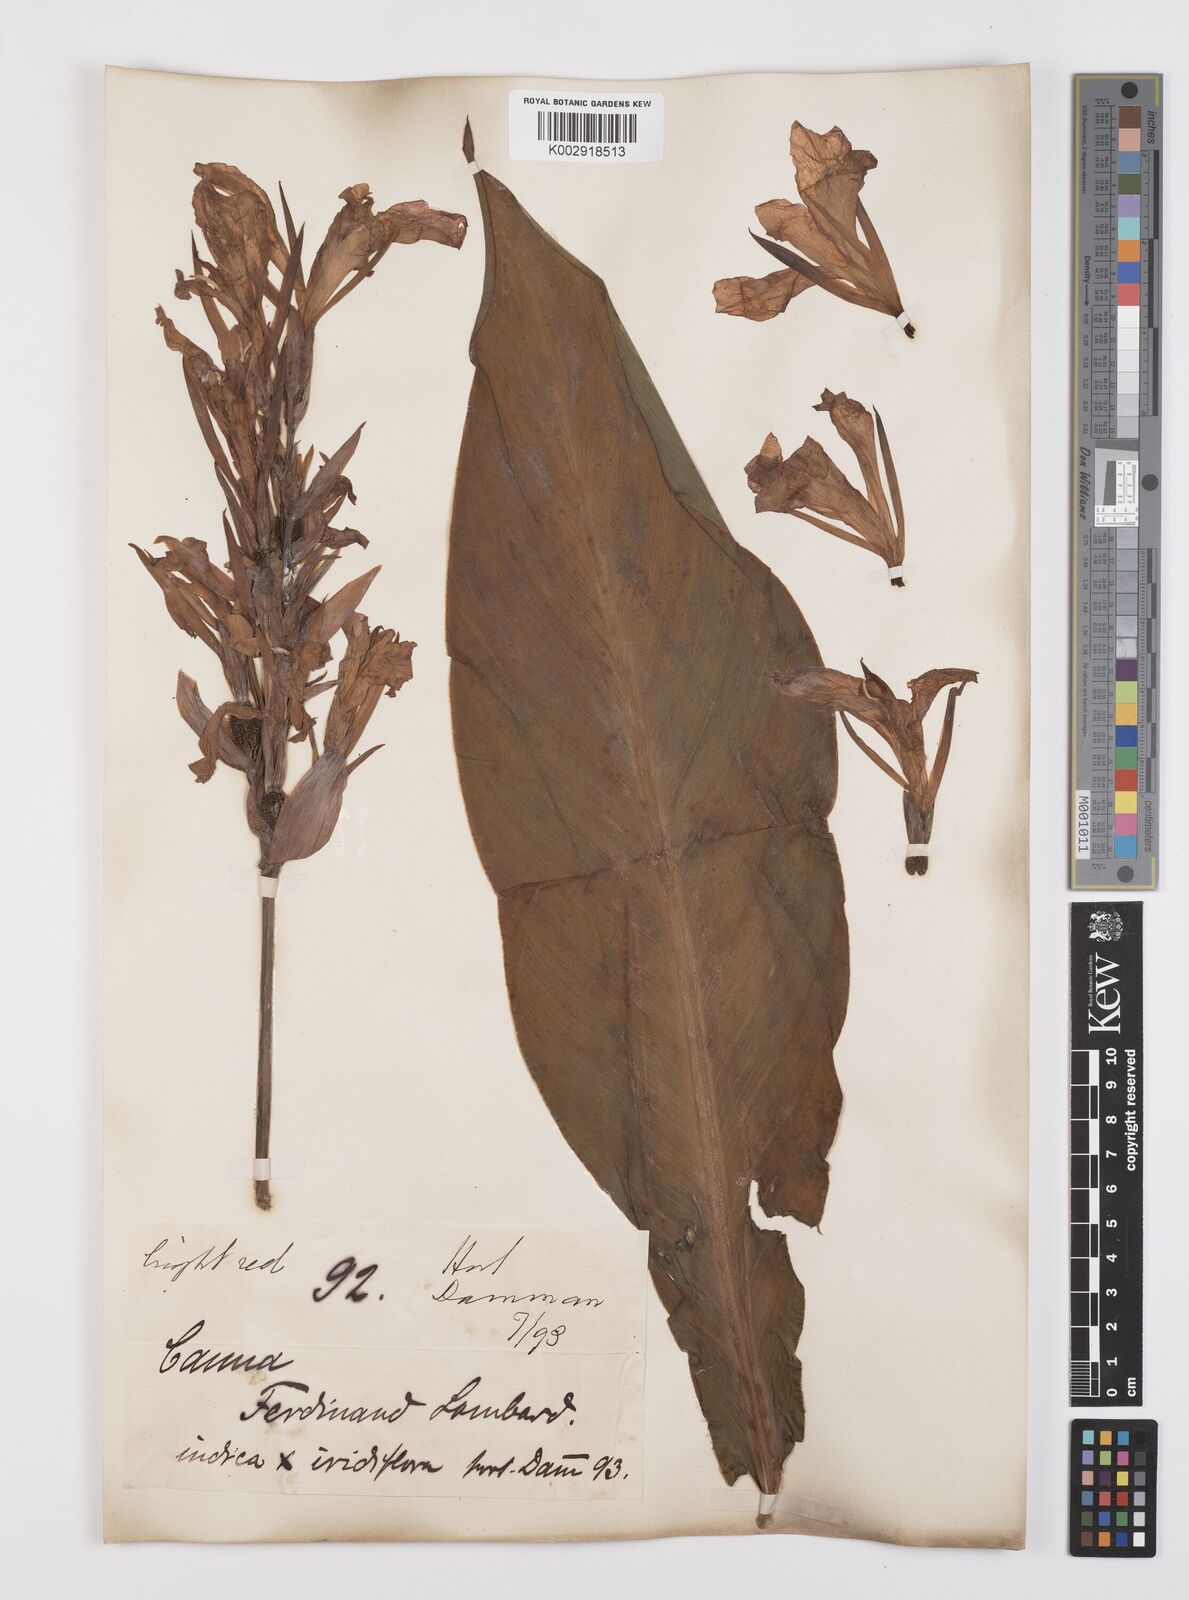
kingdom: Plantae
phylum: Tracheophyta
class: Liliopsida
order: Zingiberales
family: Cannaceae
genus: Canna
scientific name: Canna indica
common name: Indian shot
